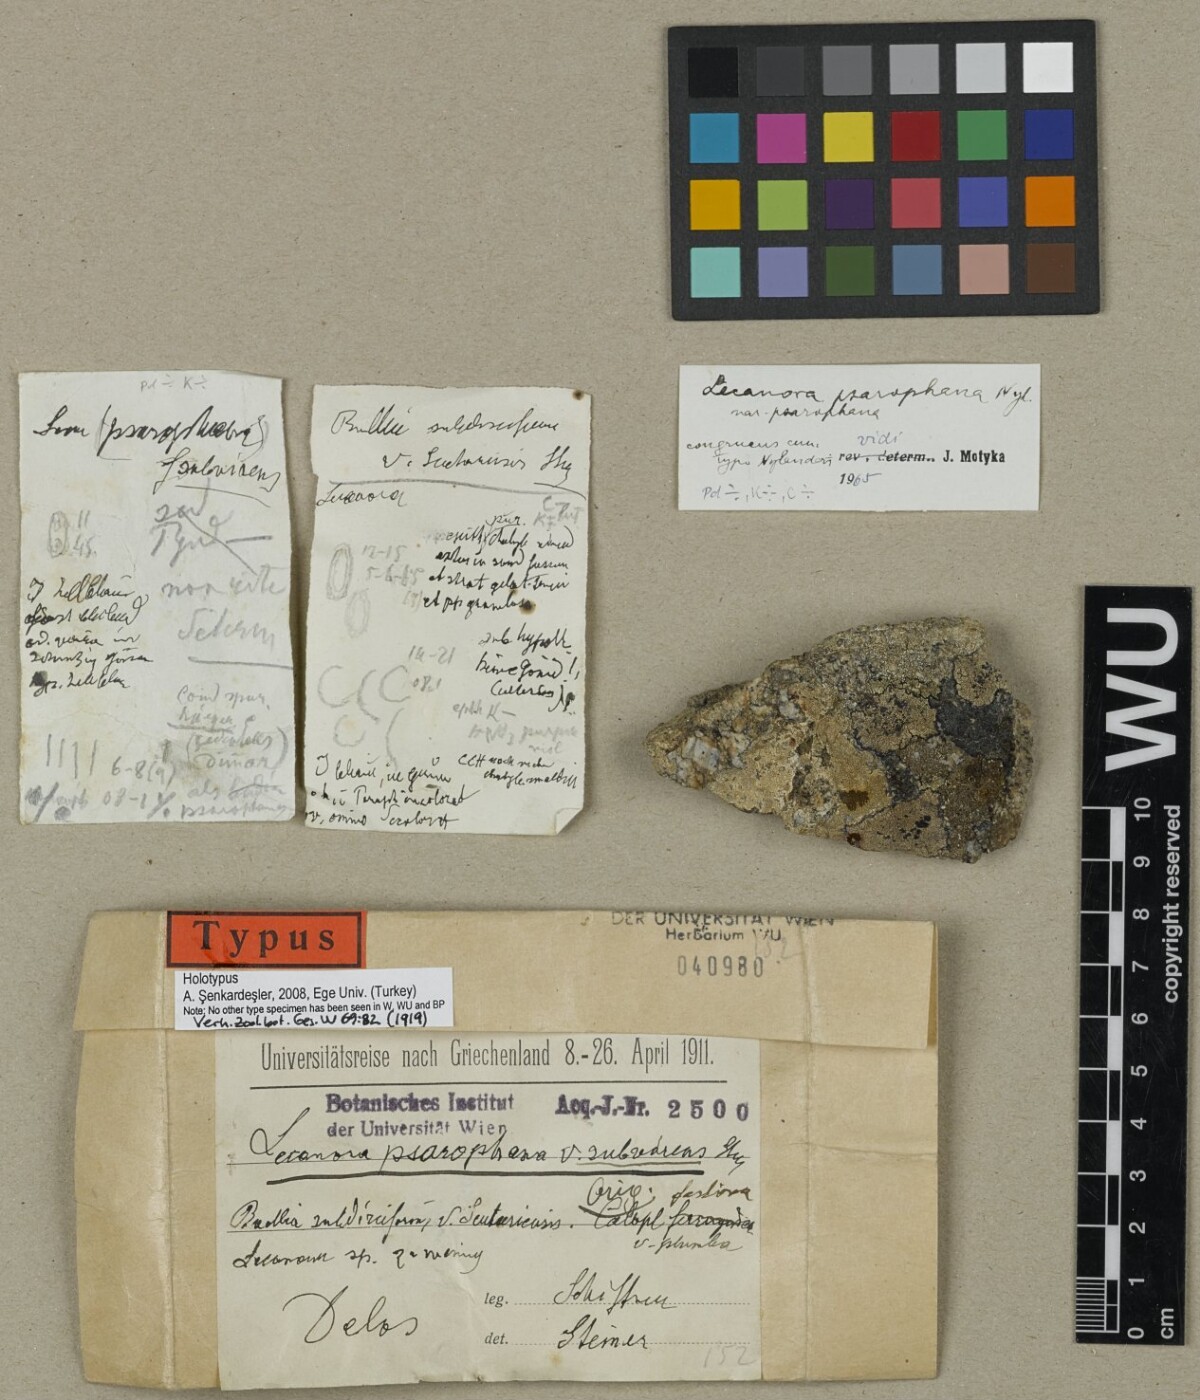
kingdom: Fungi
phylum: Ascomycota
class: Lecanoromycetes
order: Lecanorales
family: Lecanoraceae
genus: Lecanora
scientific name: Lecanora psarophana
